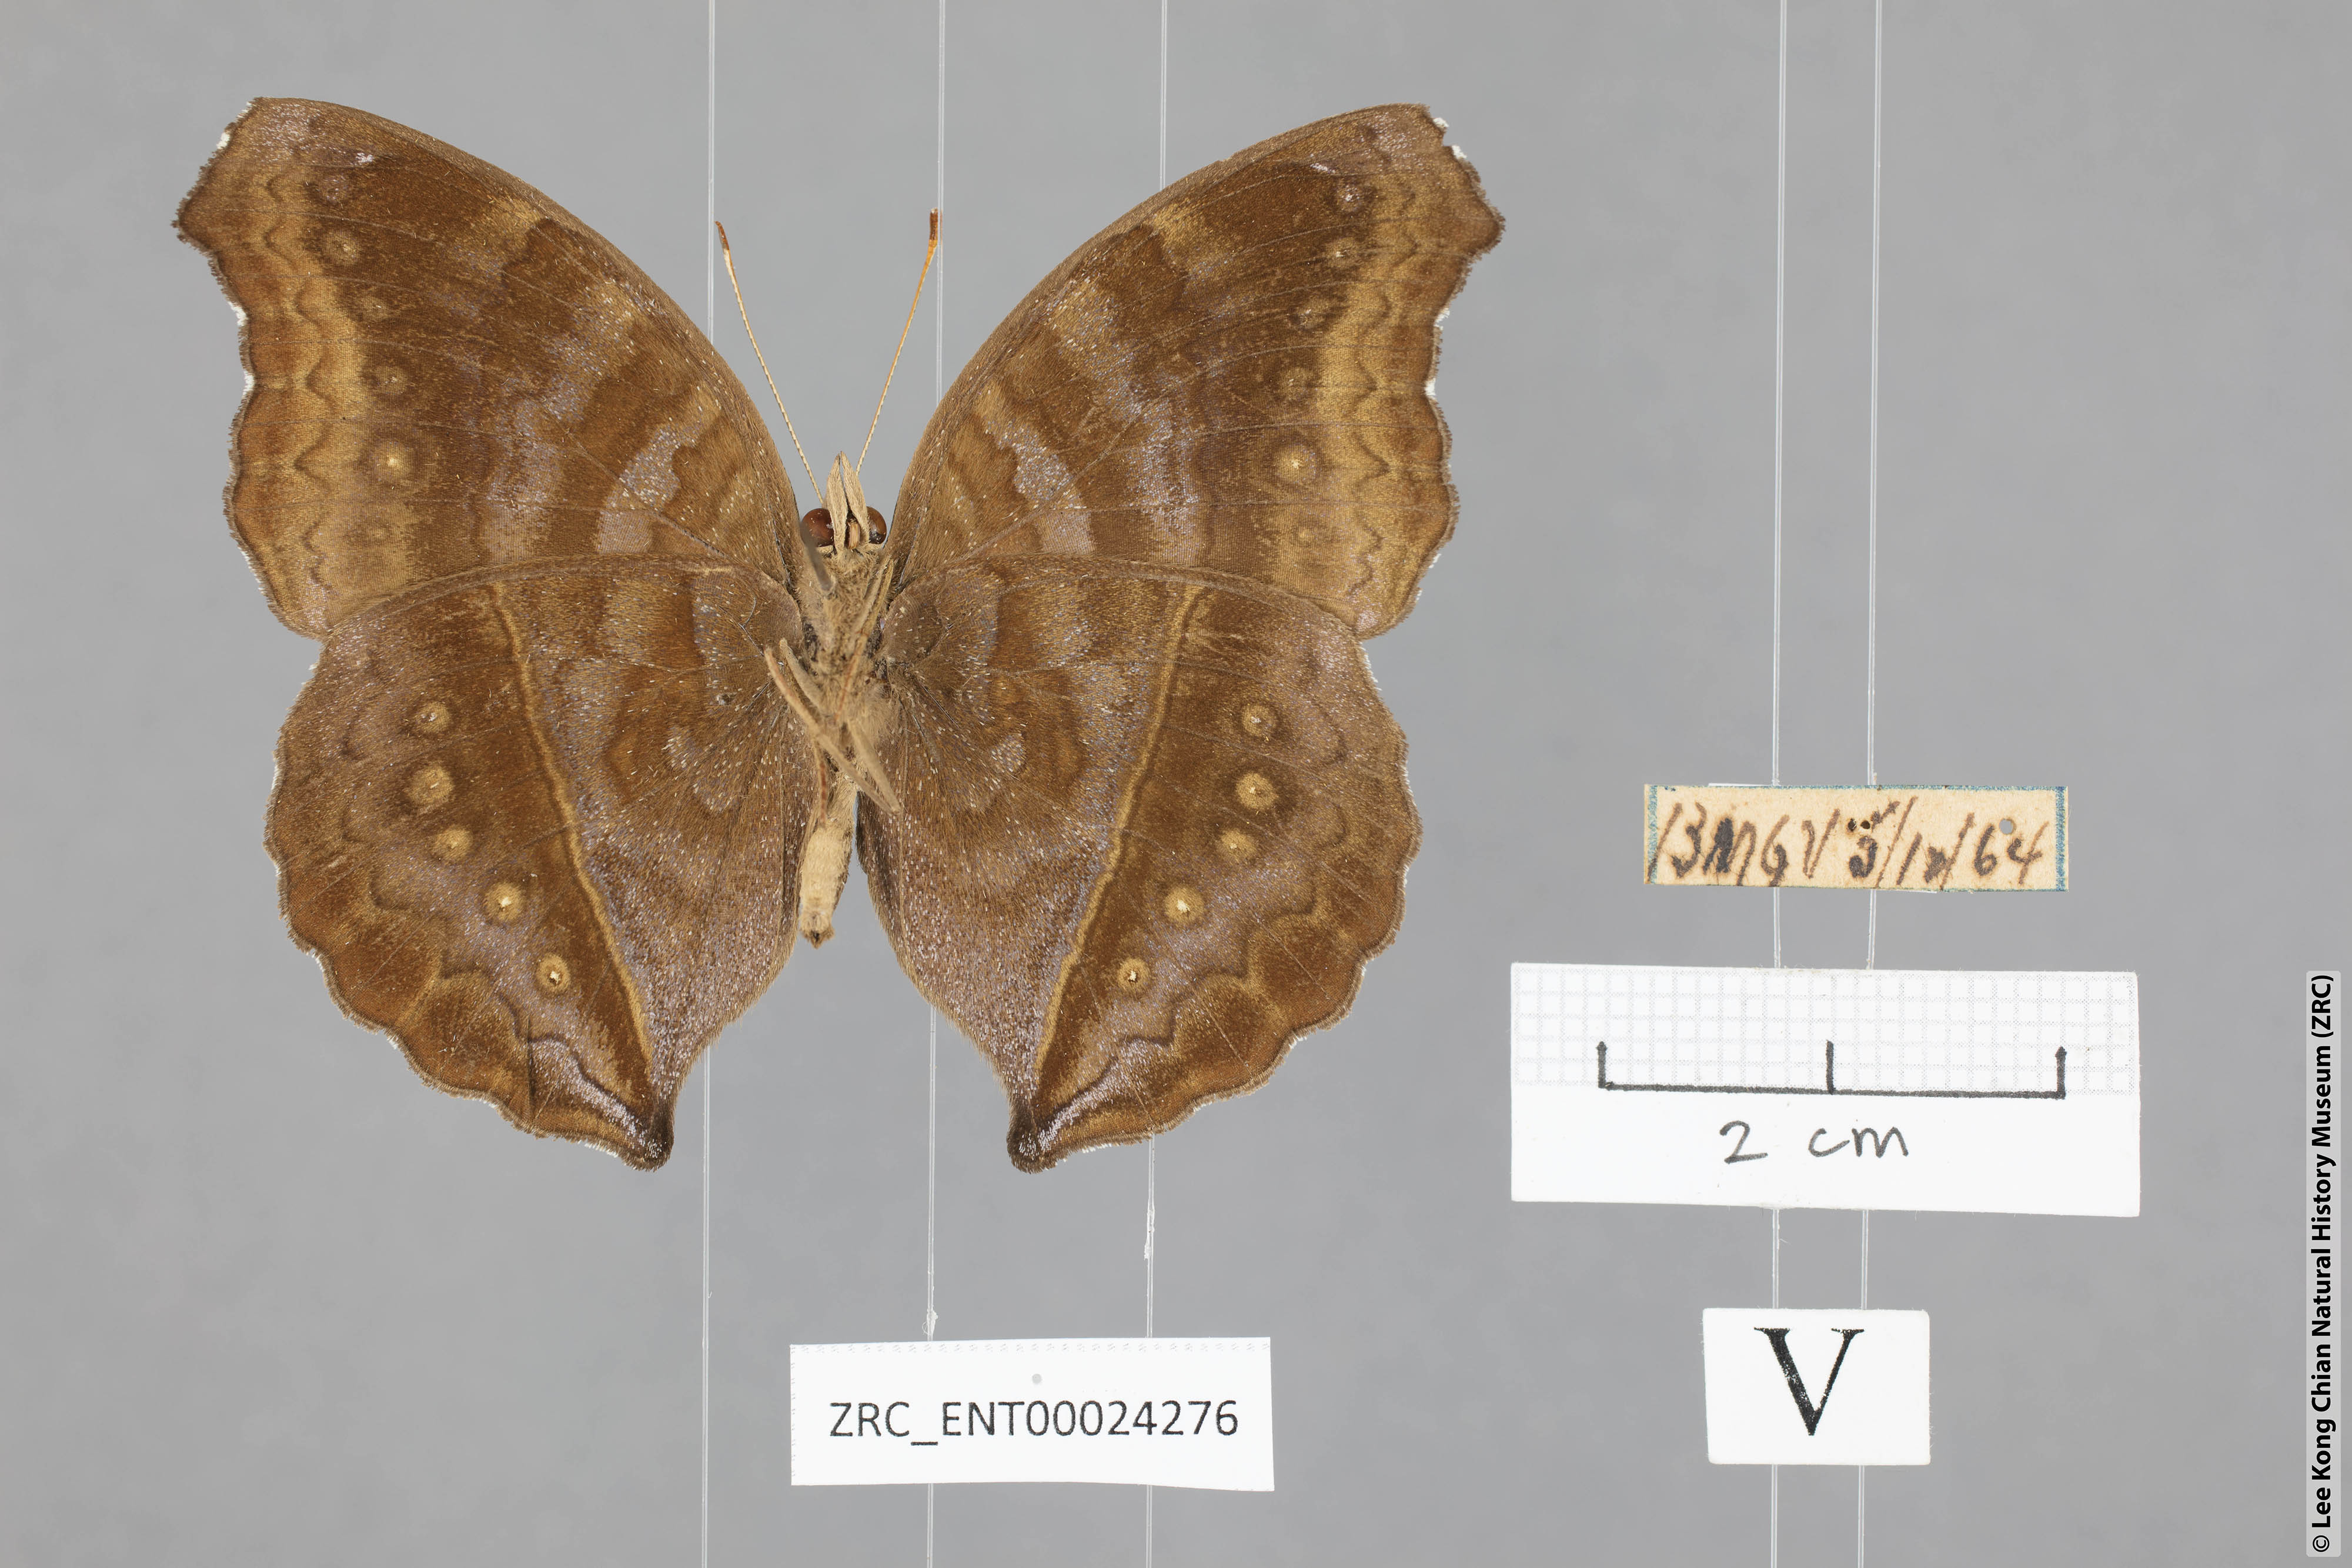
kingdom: Animalia
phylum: Arthropoda
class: Insecta
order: Lepidoptera
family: Nymphalidae
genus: Junonia
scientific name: Junonia iphita
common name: Chocolate pansy
